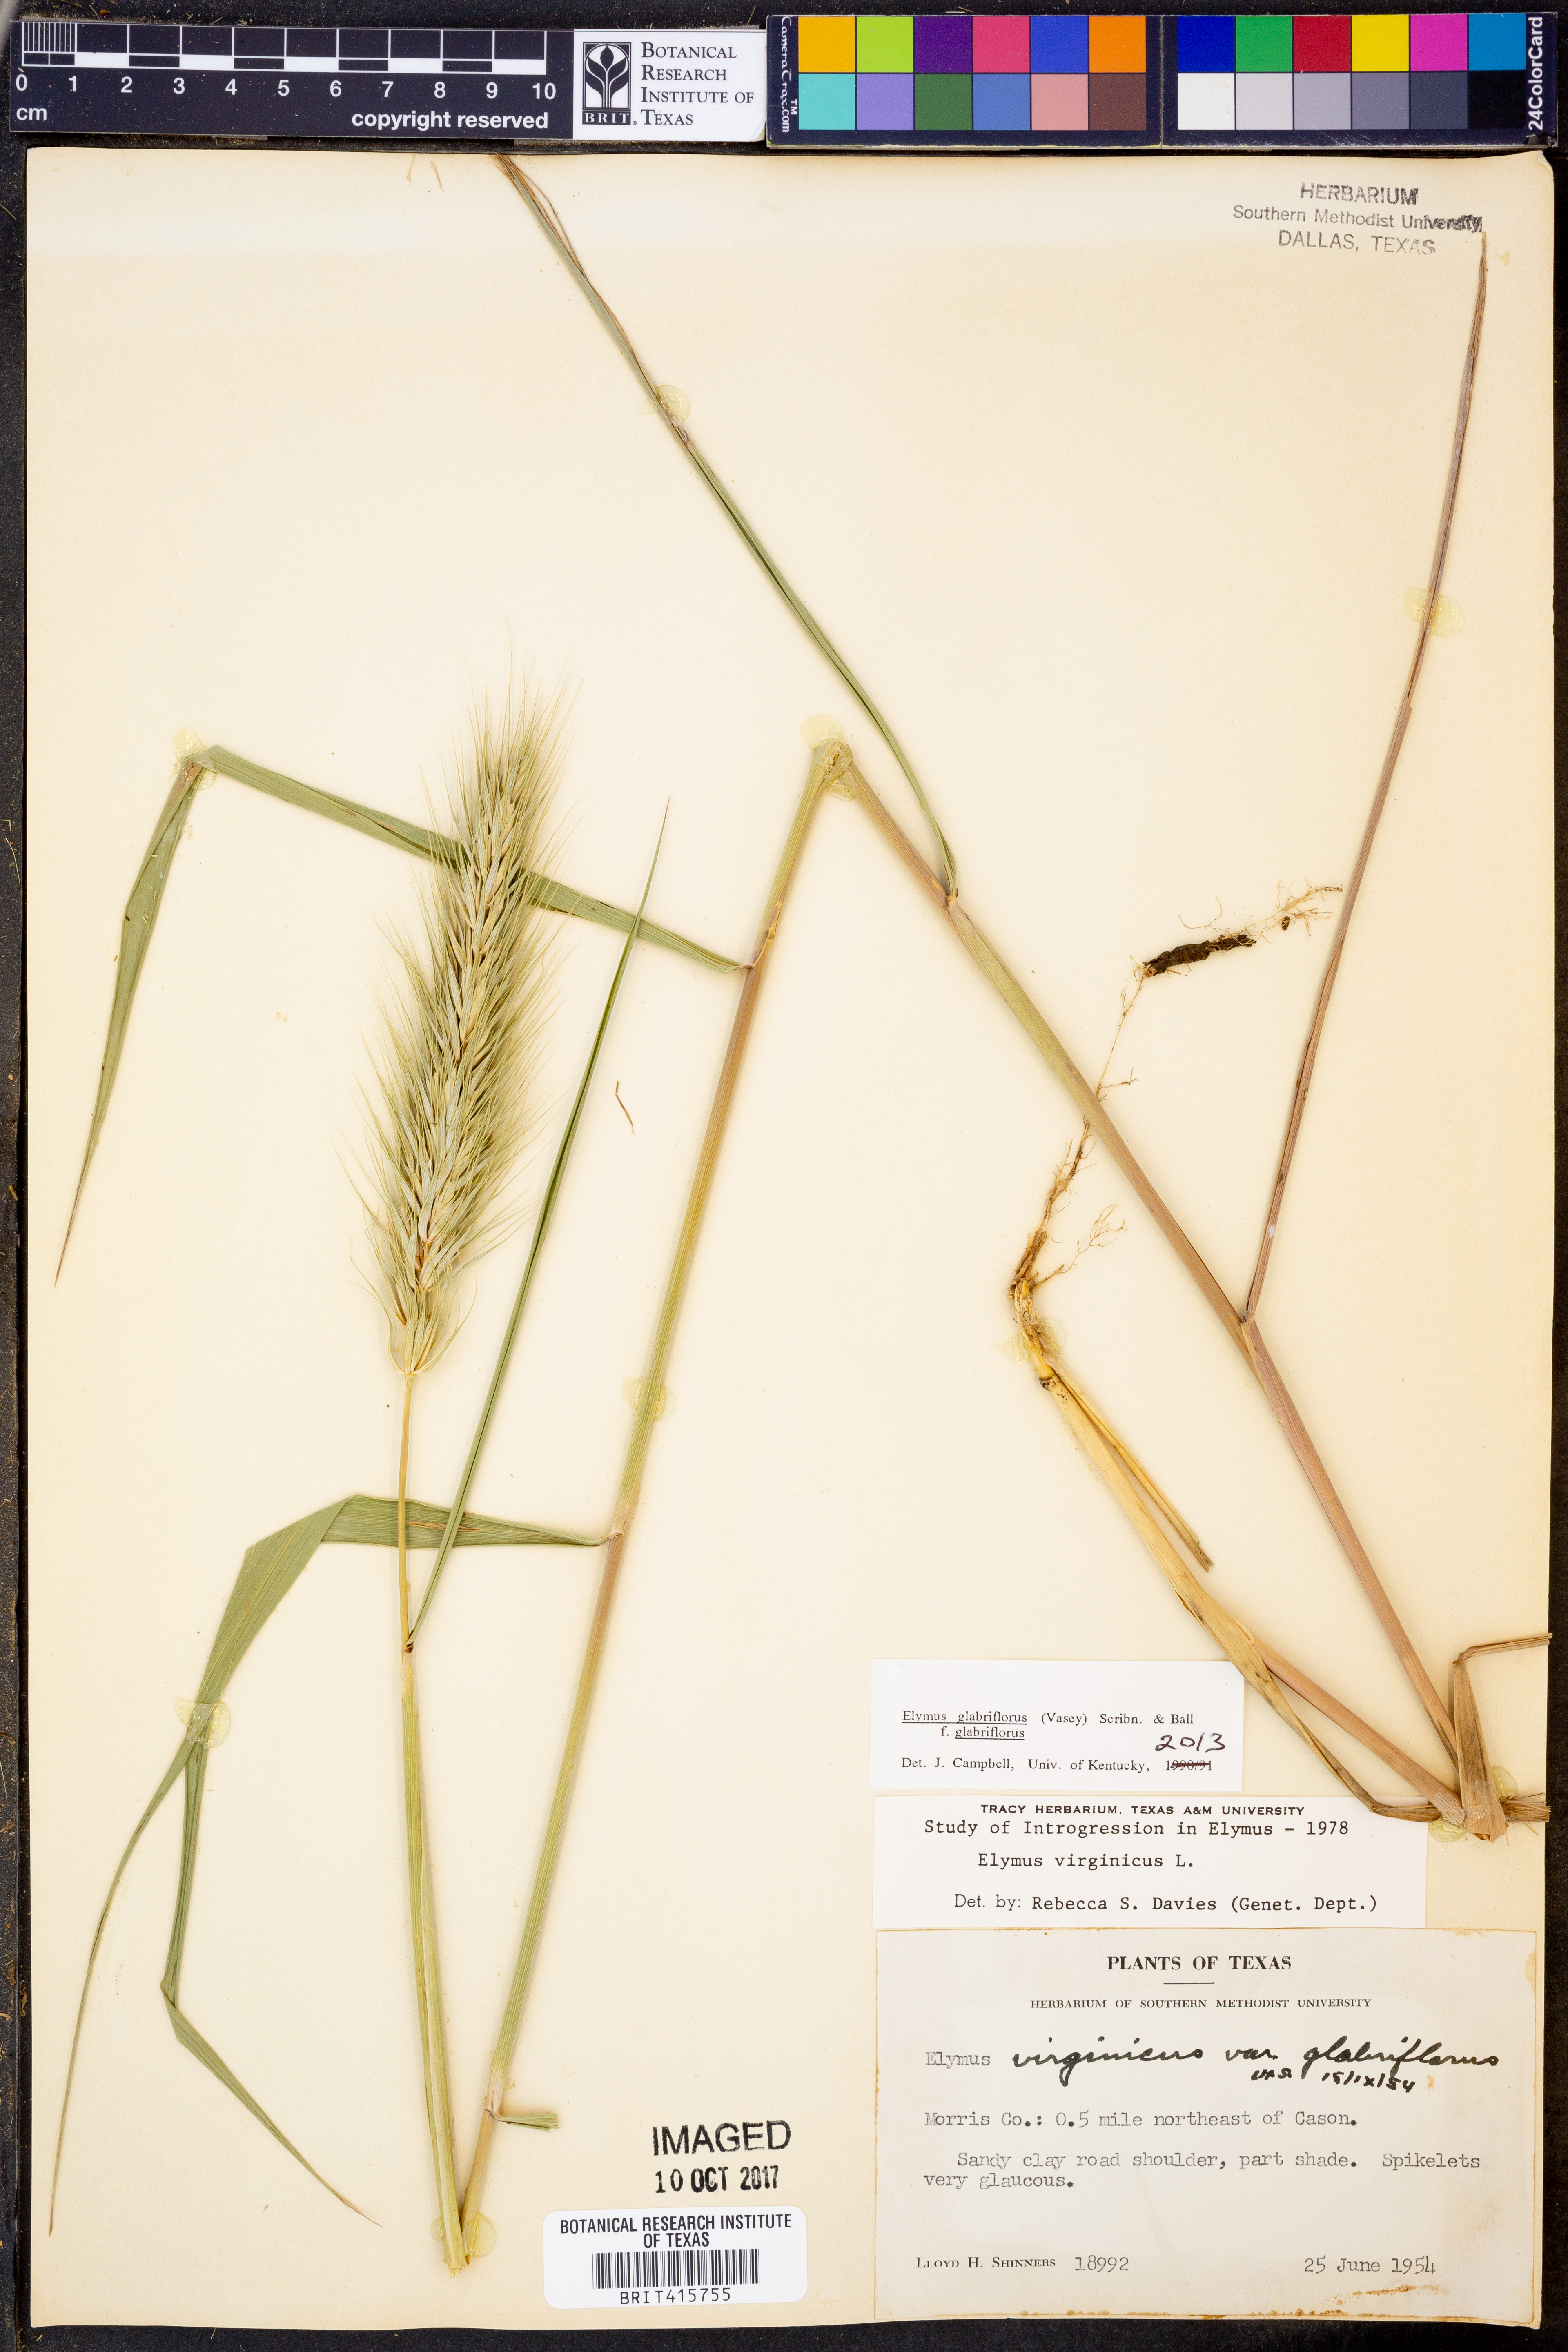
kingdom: Plantae
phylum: Tracheophyta
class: Liliopsida
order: Poales
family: Poaceae
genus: Elymus
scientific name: Elymus virginicus
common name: Common eastern wildrye
